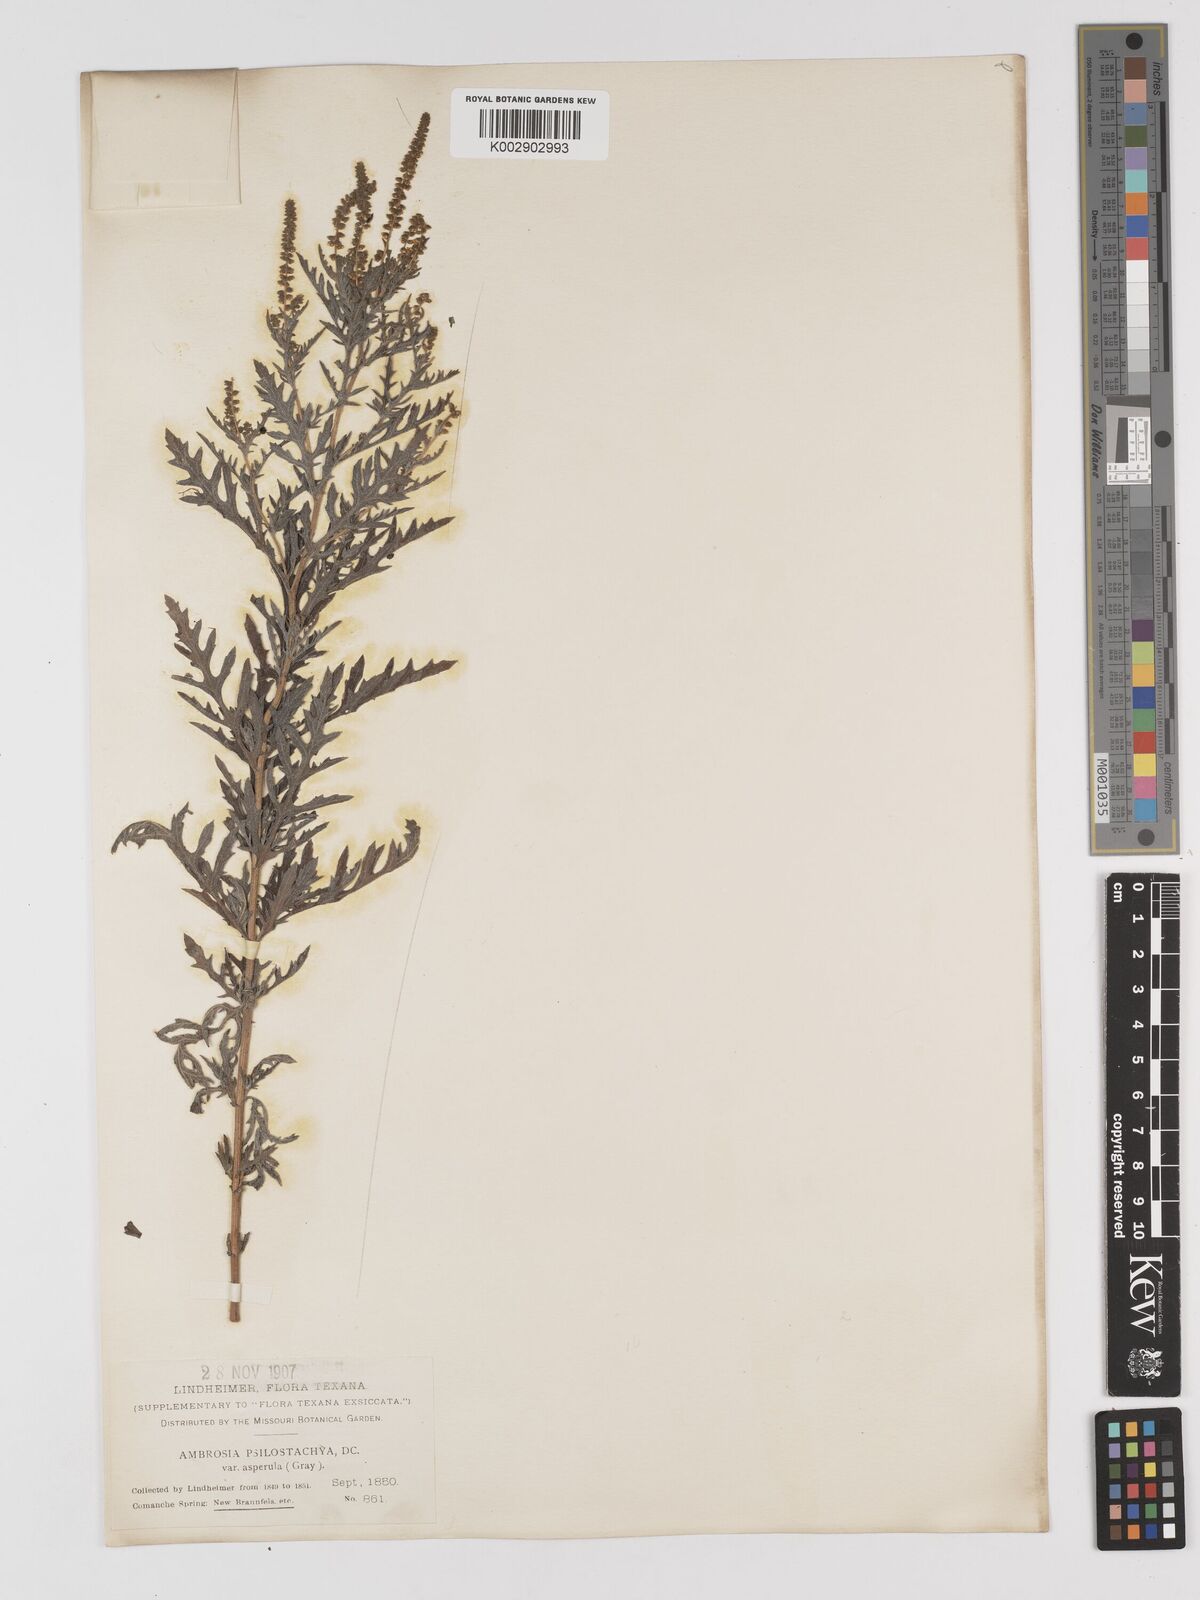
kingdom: Plantae
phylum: Tracheophyta
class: Magnoliopsida
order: Asterales
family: Asteraceae
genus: Ambrosia
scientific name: Ambrosia psilostachya
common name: Perennial ragweed
